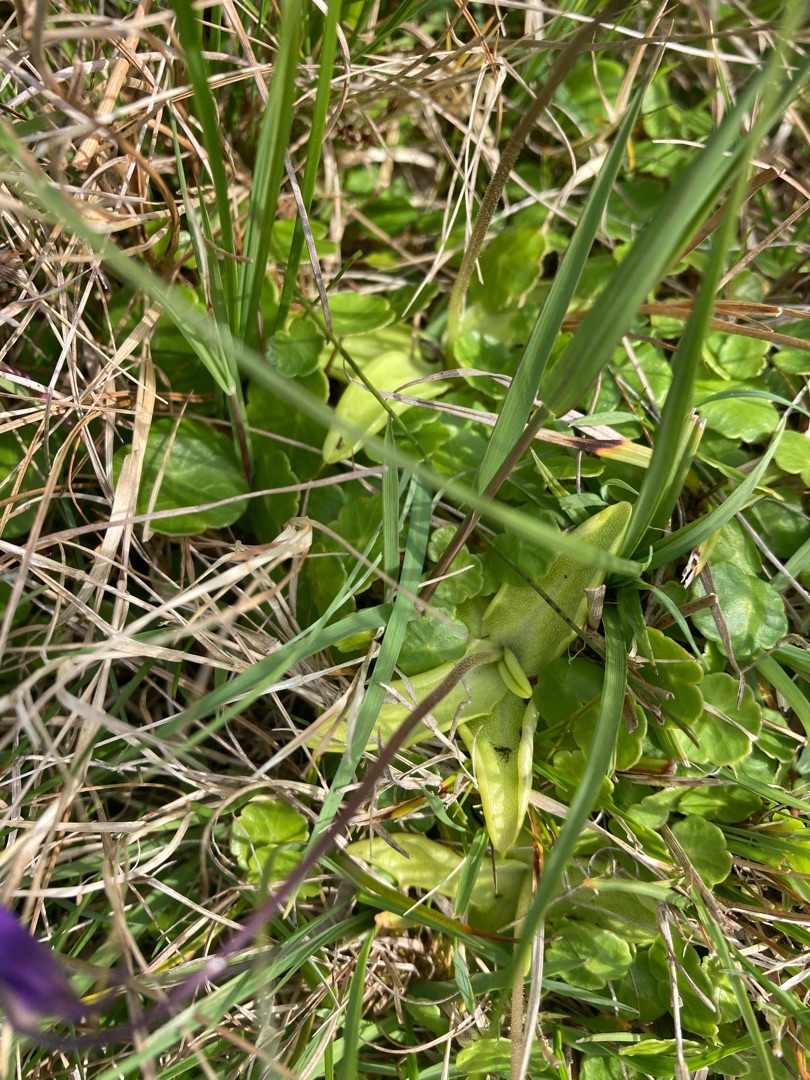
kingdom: Plantae
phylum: Tracheophyta
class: Magnoliopsida
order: Lamiales
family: Lentibulariaceae
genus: Pinguicula
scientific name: Pinguicula vulgaris
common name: Vibefedt
